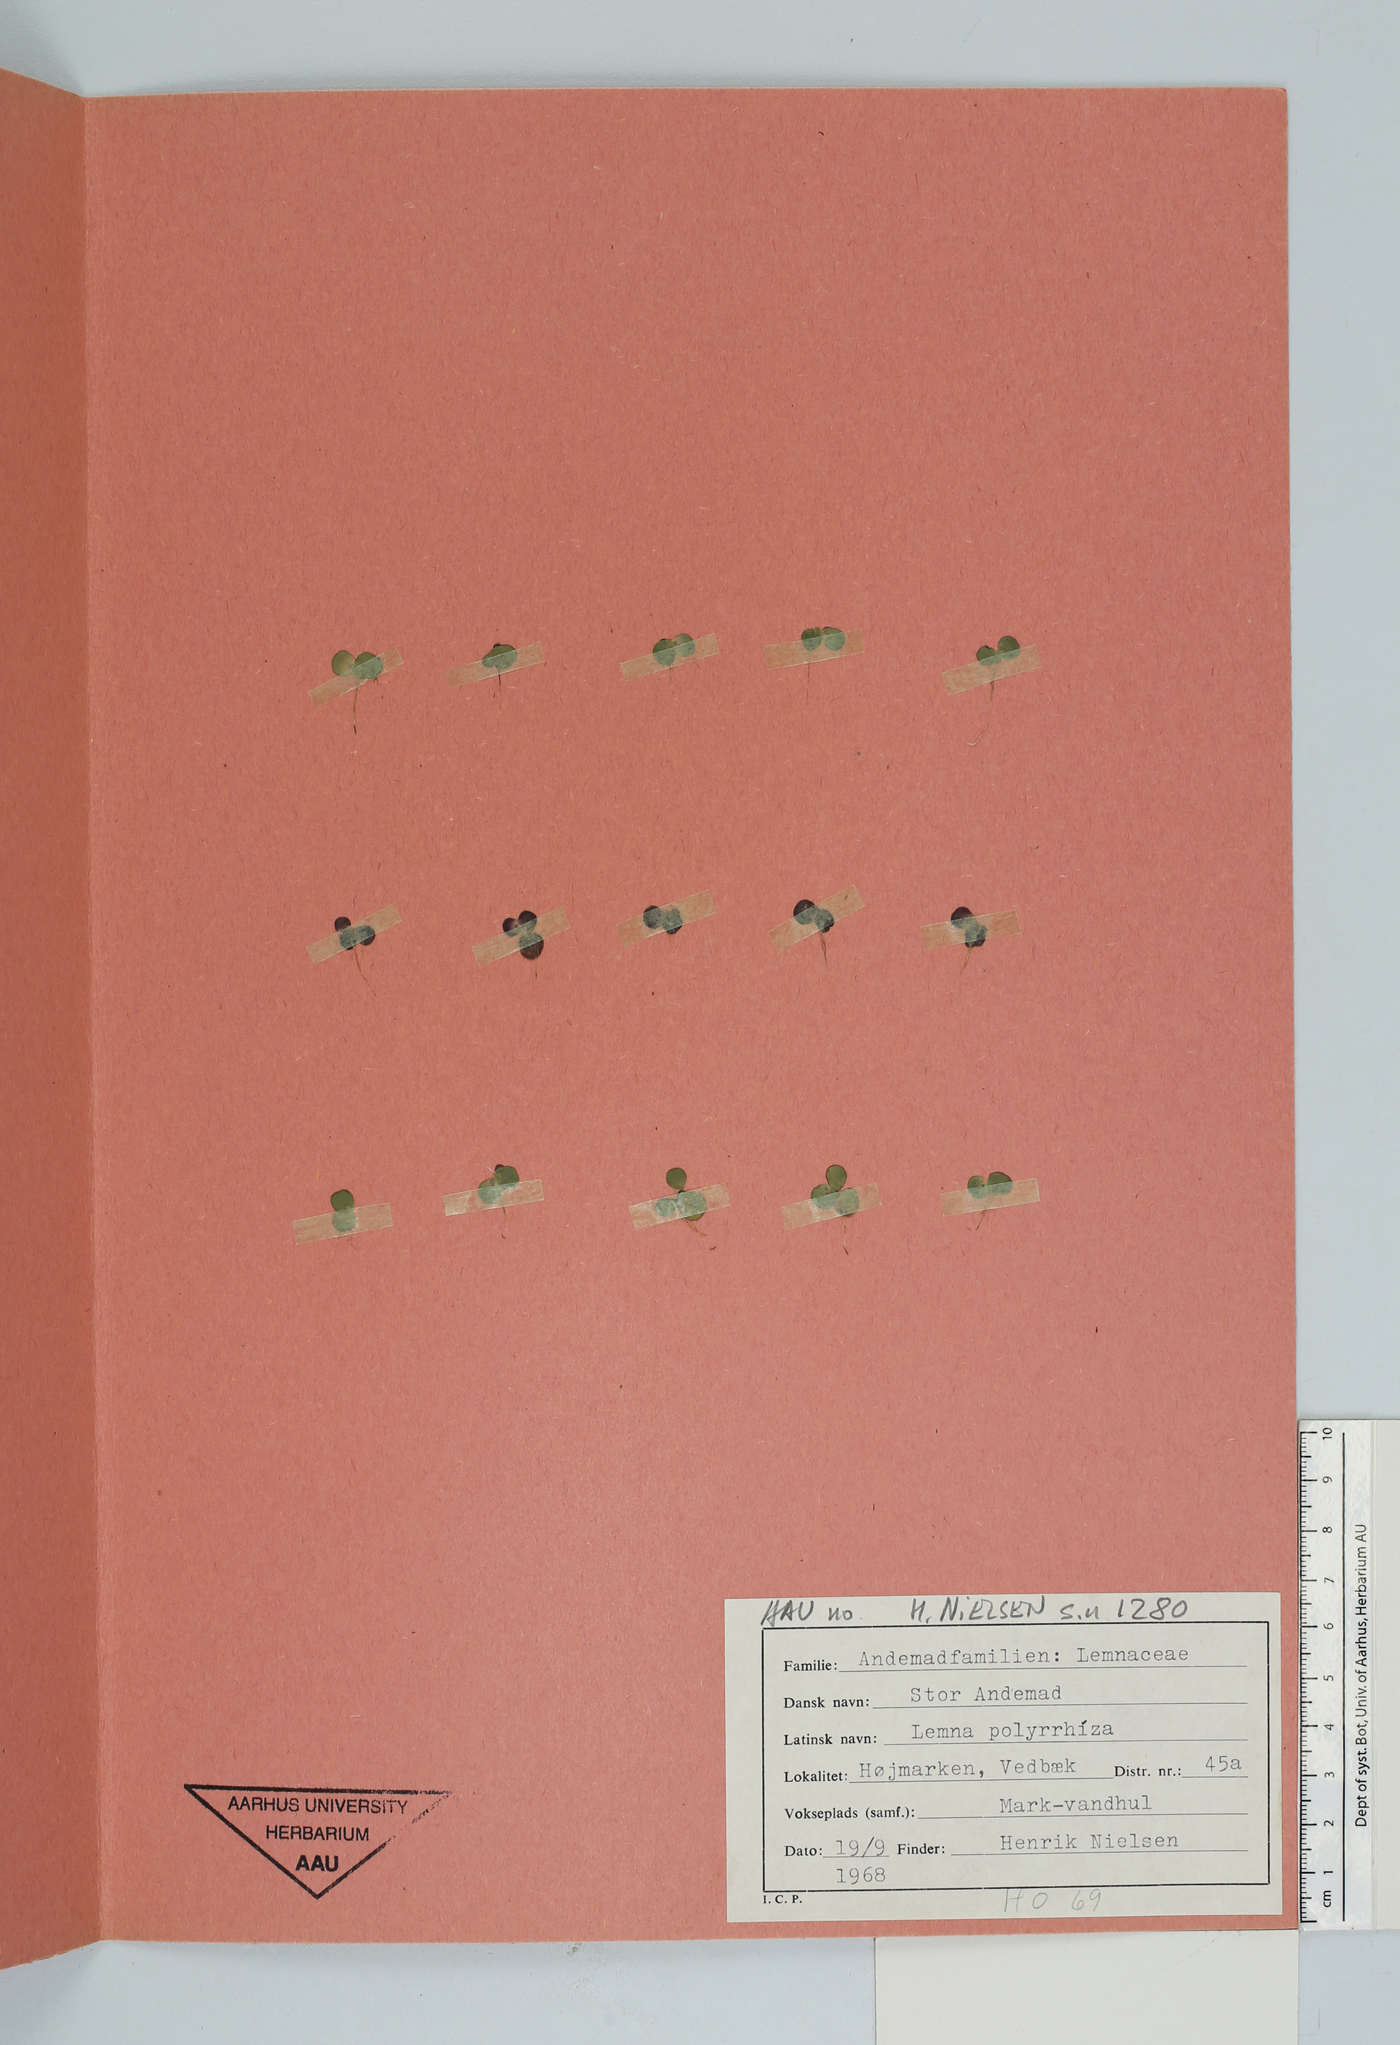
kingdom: Plantae
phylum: Tracheophyta
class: Liliopsida
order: Alismatales
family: Araceae
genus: Spirodela
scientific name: Spirodela polyrhiza
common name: Great duckweed
